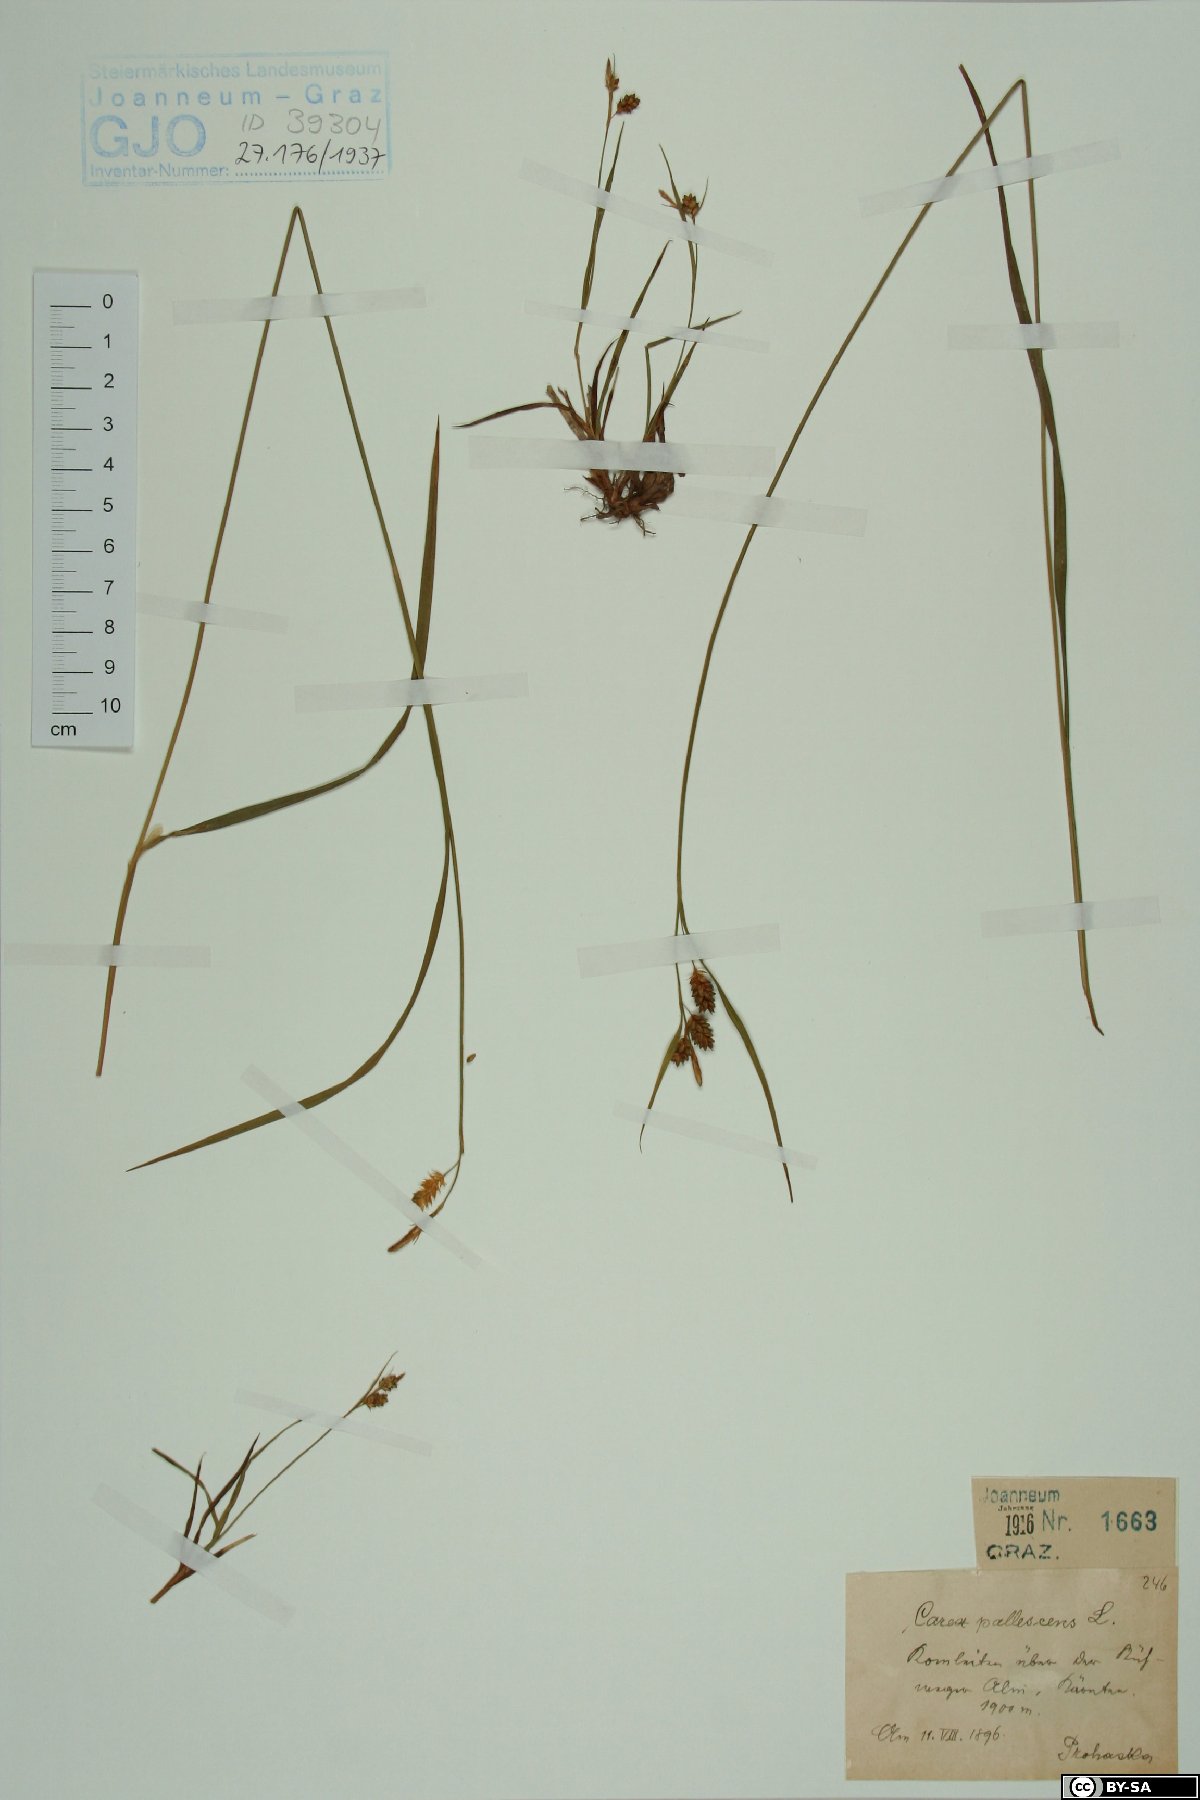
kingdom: Plantae
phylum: Tracheophyta
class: Liliopsida
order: Poales
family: Cyperaceae
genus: Carex
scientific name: Carex pallescens
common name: Pale sedge
